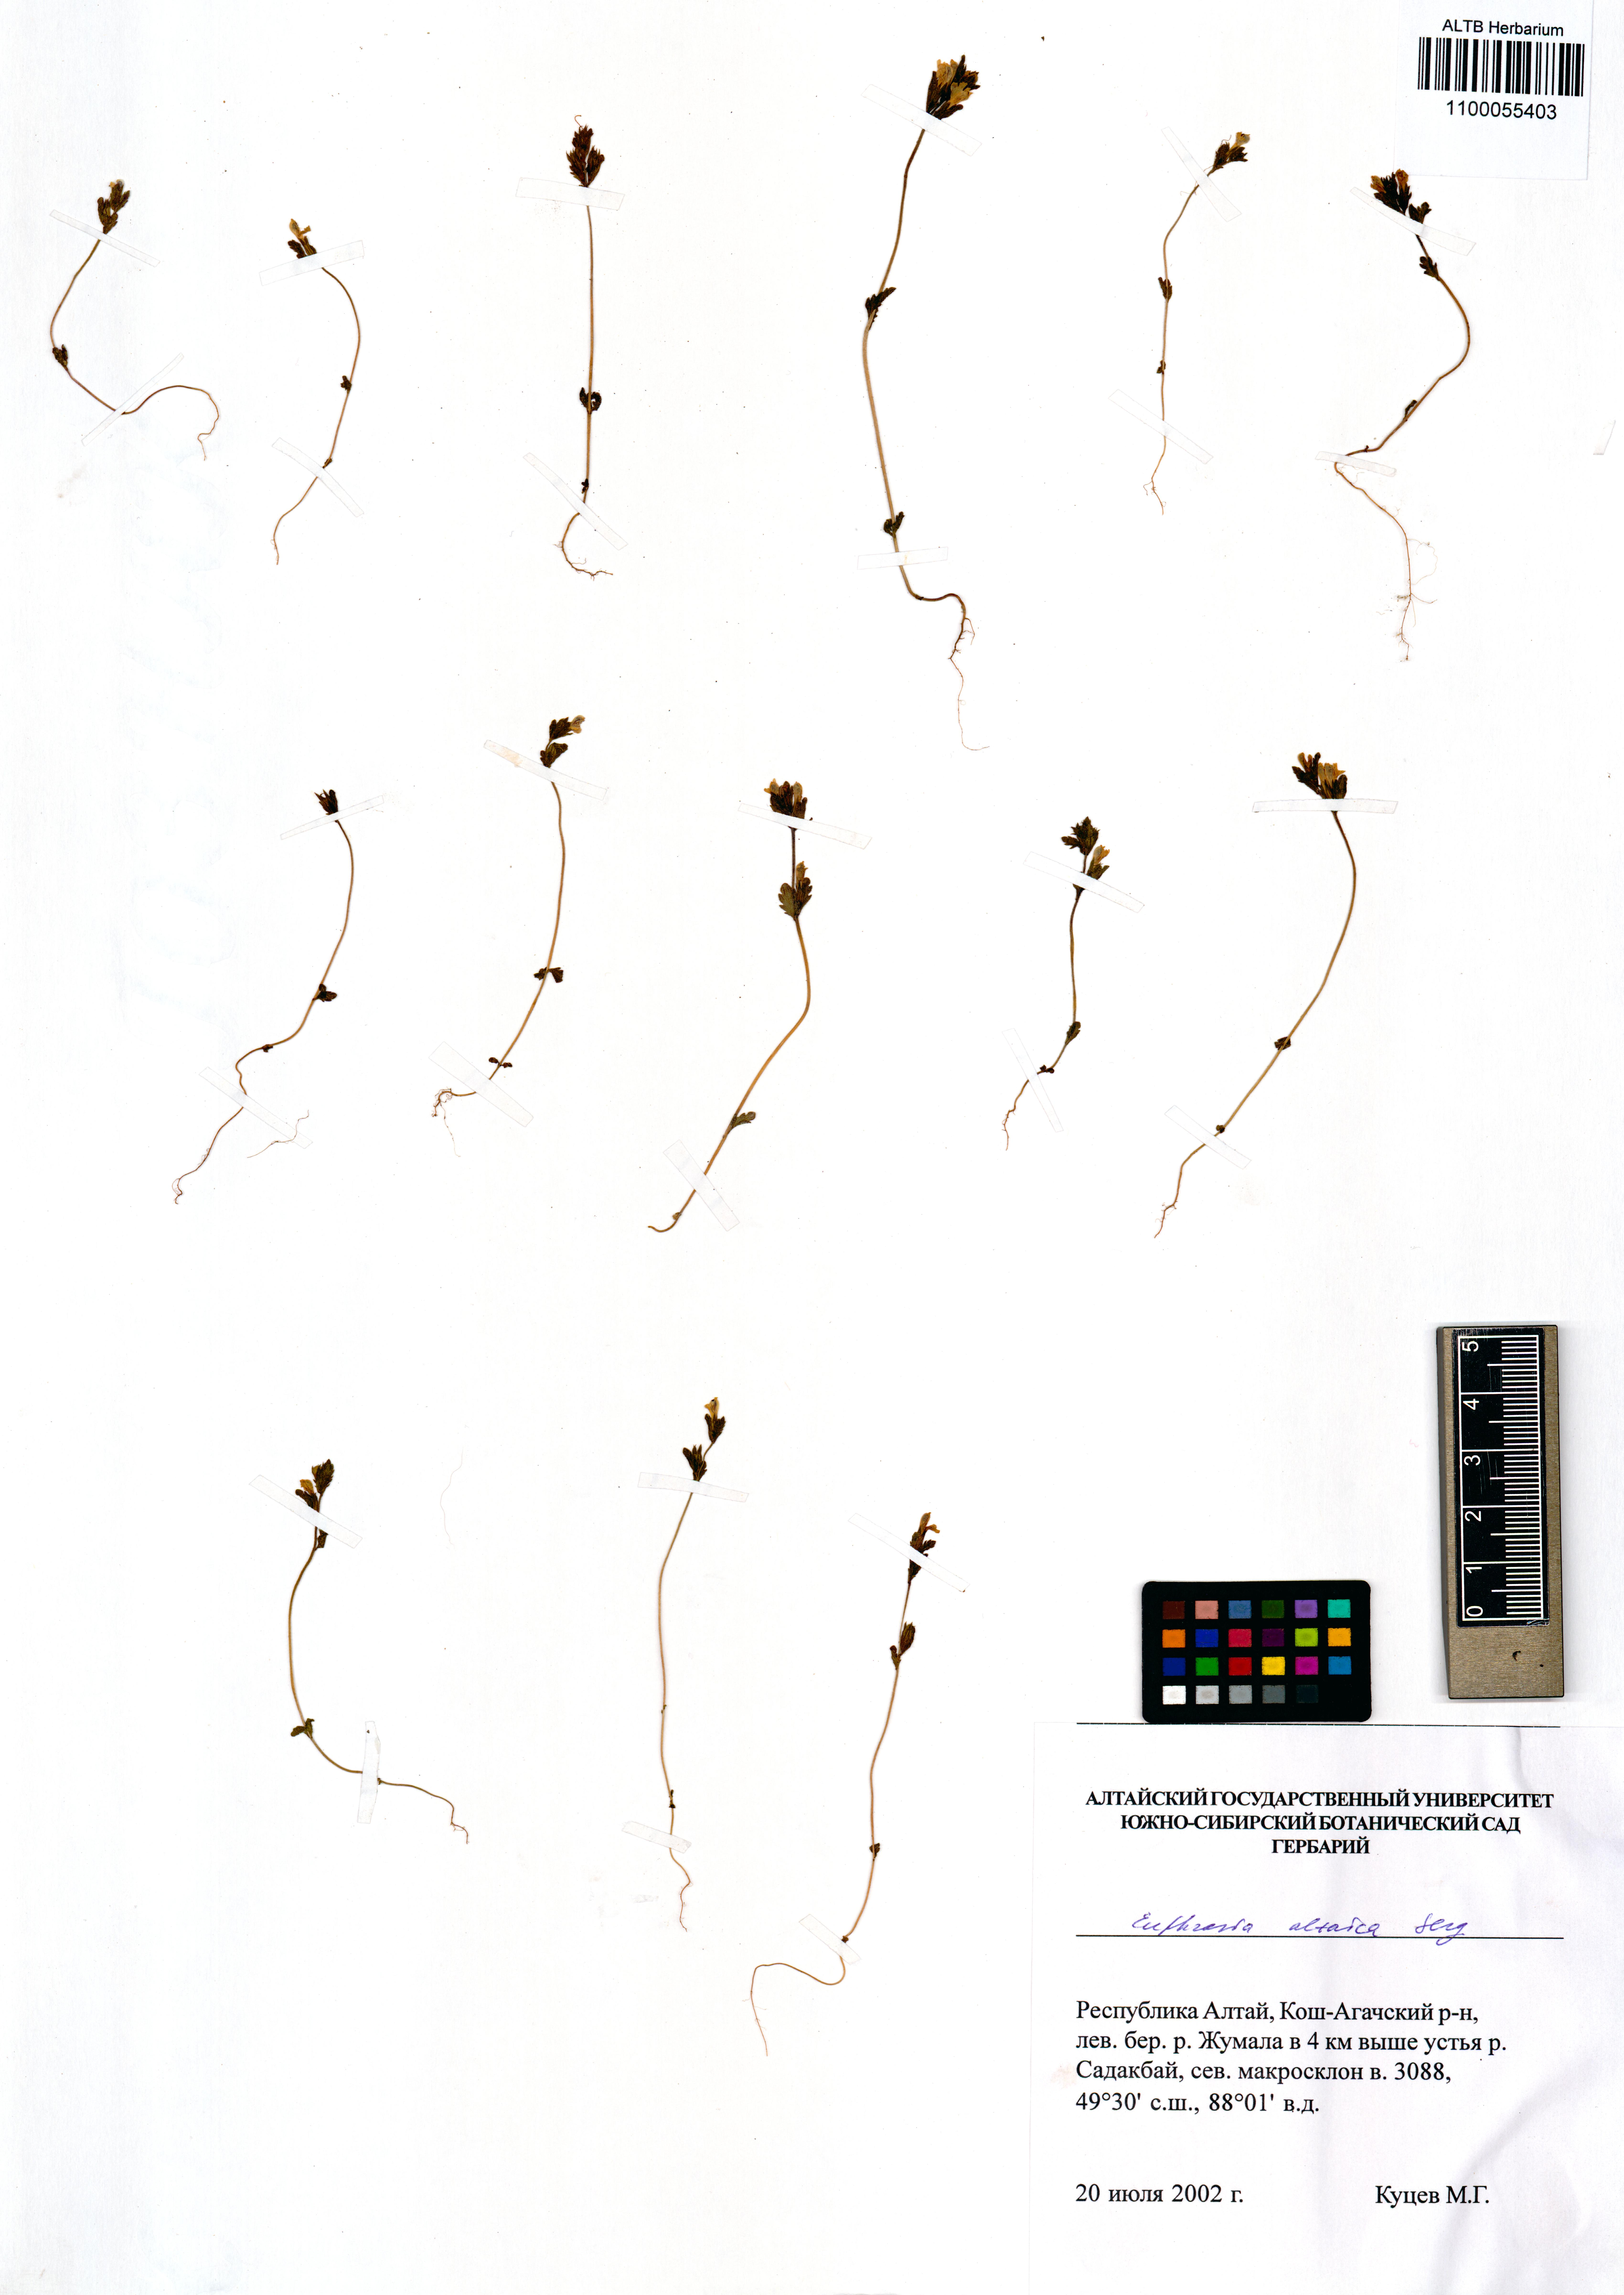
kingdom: Plantae
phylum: Tracheophyta
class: Magnoliopsida
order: Lamiales
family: Orobanchaceae
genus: Euphrasia
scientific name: Euphrasia altaica
